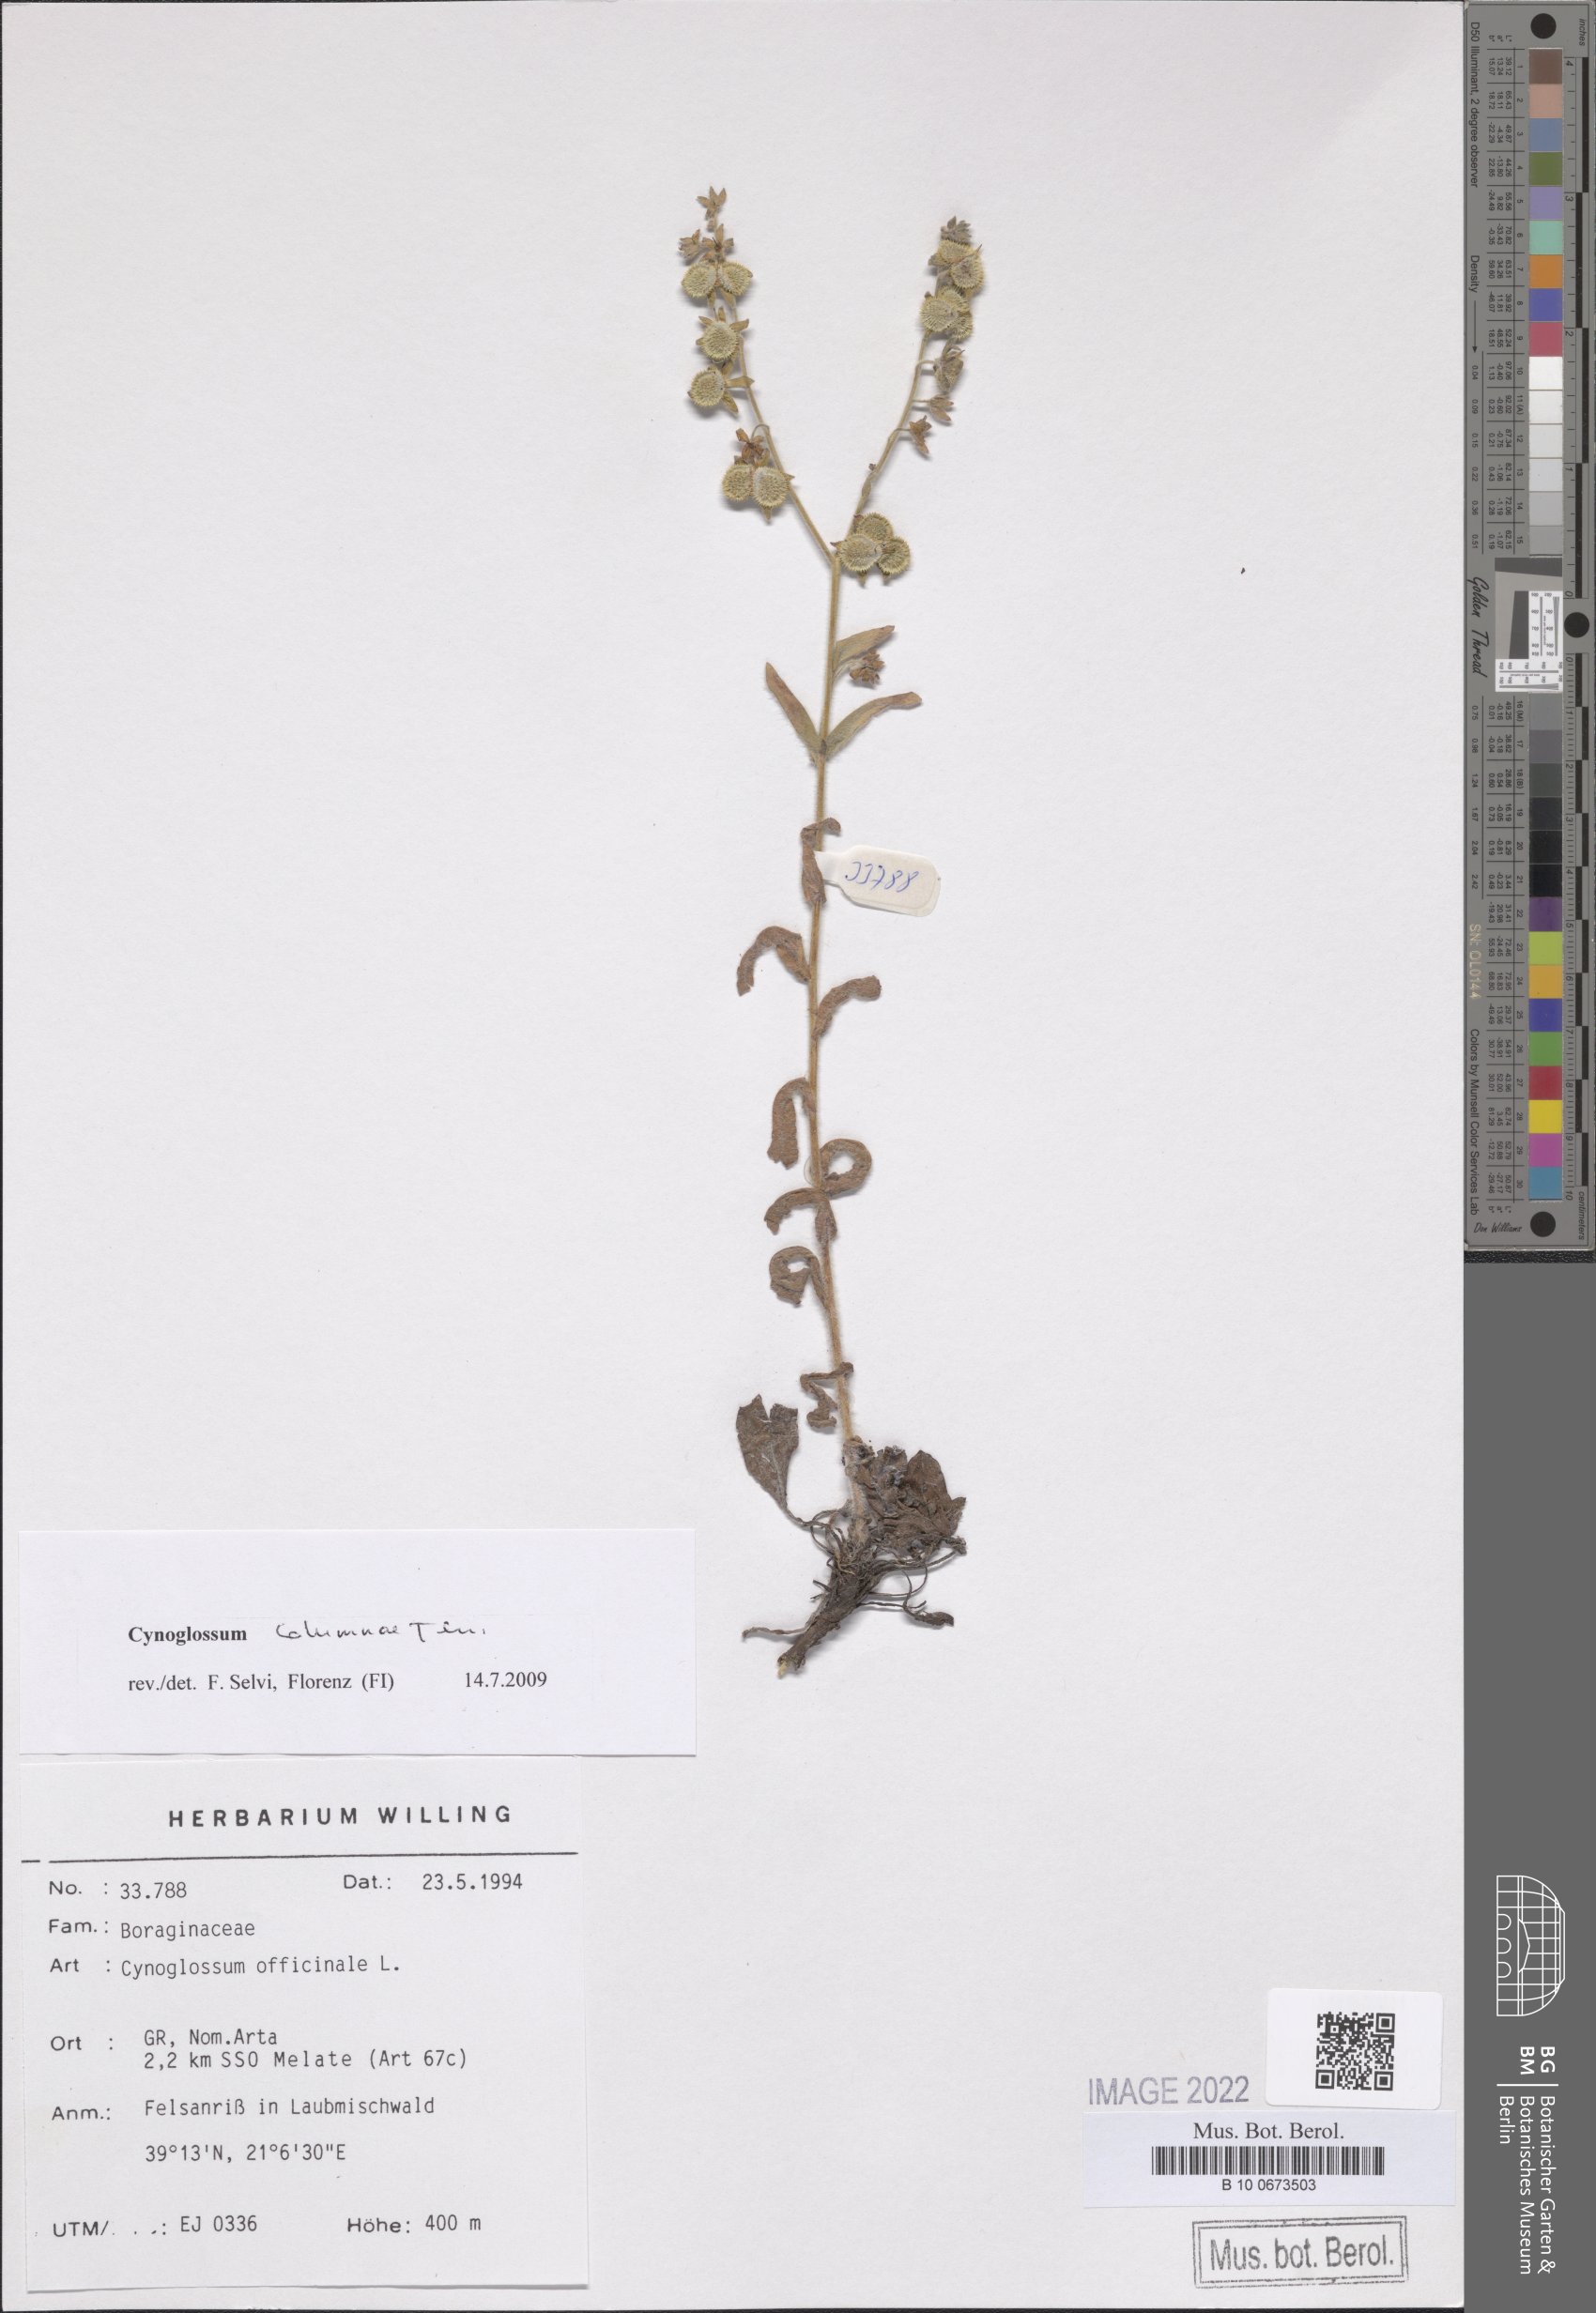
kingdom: Plantae
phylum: Tracheophyta
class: Magnoliopsida
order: Boraginales
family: Boraginaceae
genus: Rindera
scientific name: Rindera columnae
